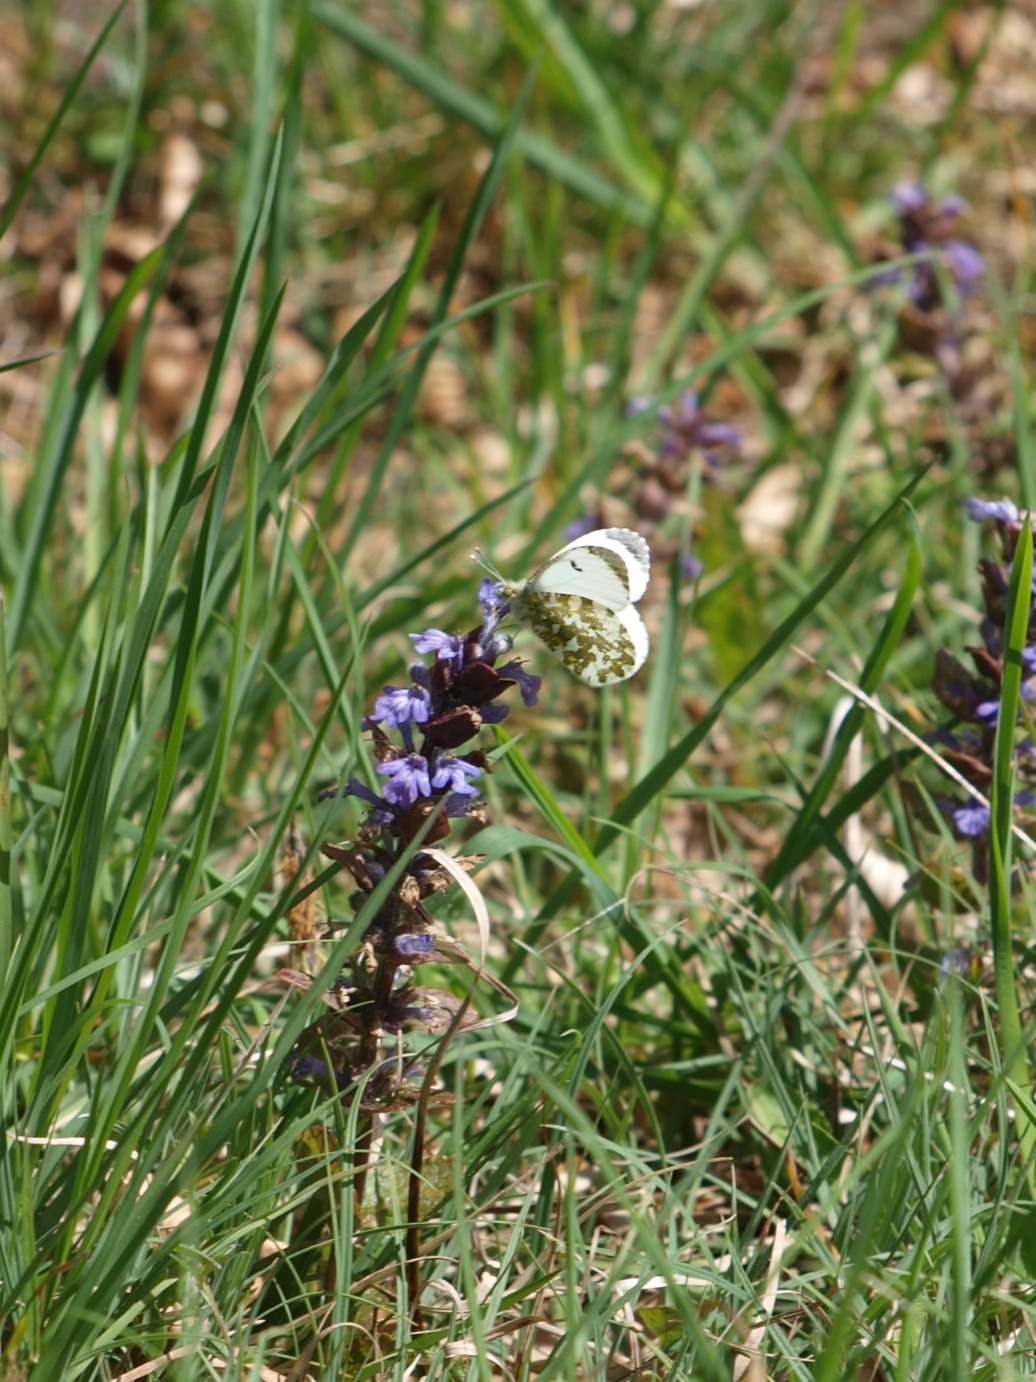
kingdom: Animalia
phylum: Arthropoda
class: Insecta
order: Lepidoptera
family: Pieridae
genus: Anthocharis
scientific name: Anthocharis cardamines
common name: Aurora
